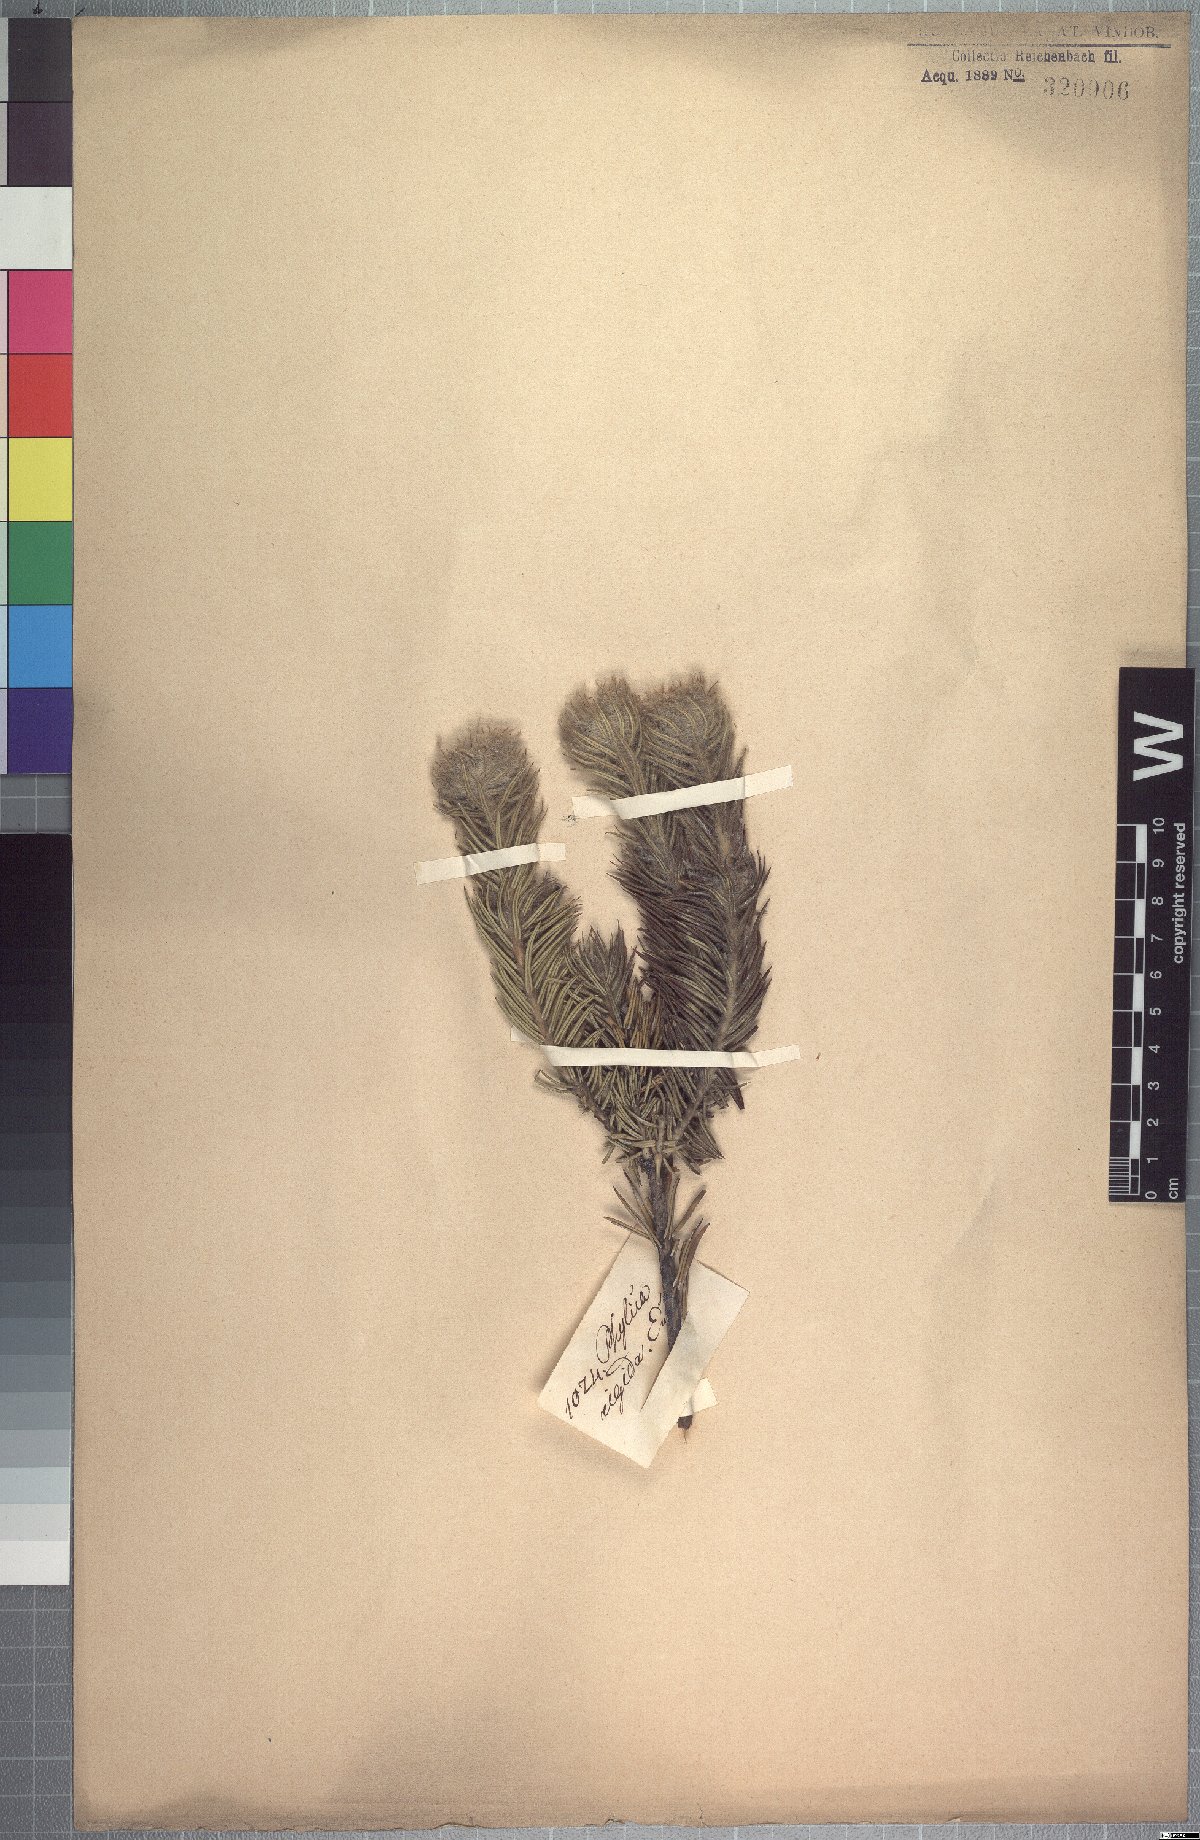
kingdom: Plantae
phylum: Tracheophyta
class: Magnoliopsida
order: Rosales
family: Rhamnaceae
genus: Phylica
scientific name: Phylica rigida
